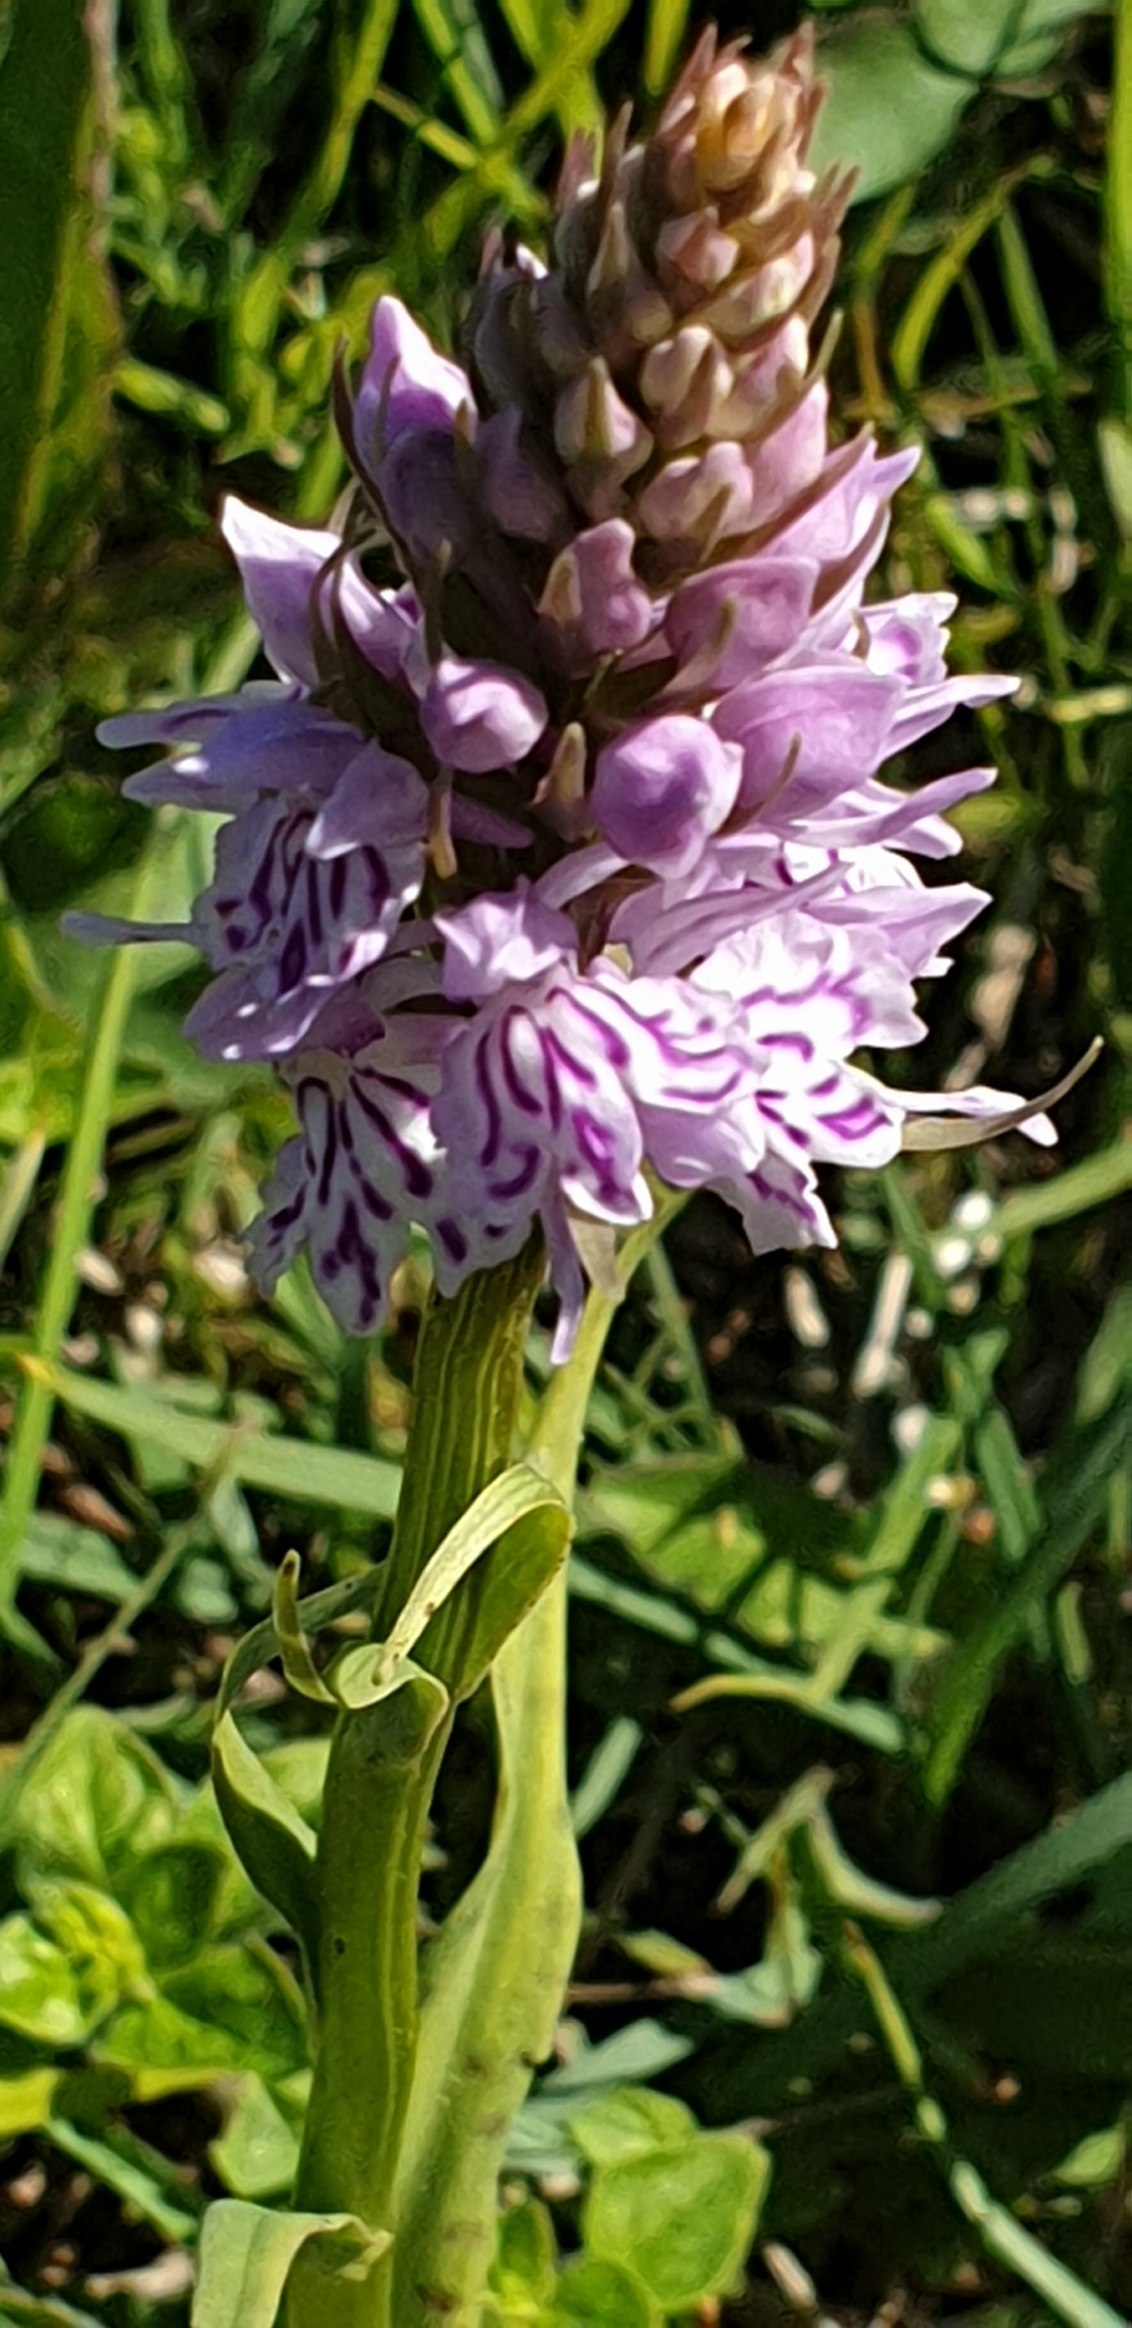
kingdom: Plantae
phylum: Tracheophyta
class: Liliopsida
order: Asparagales
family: Orchidaceae
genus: Dactylorhiza
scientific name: Dactylorhiza maculata
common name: Skov-gøgeurt
